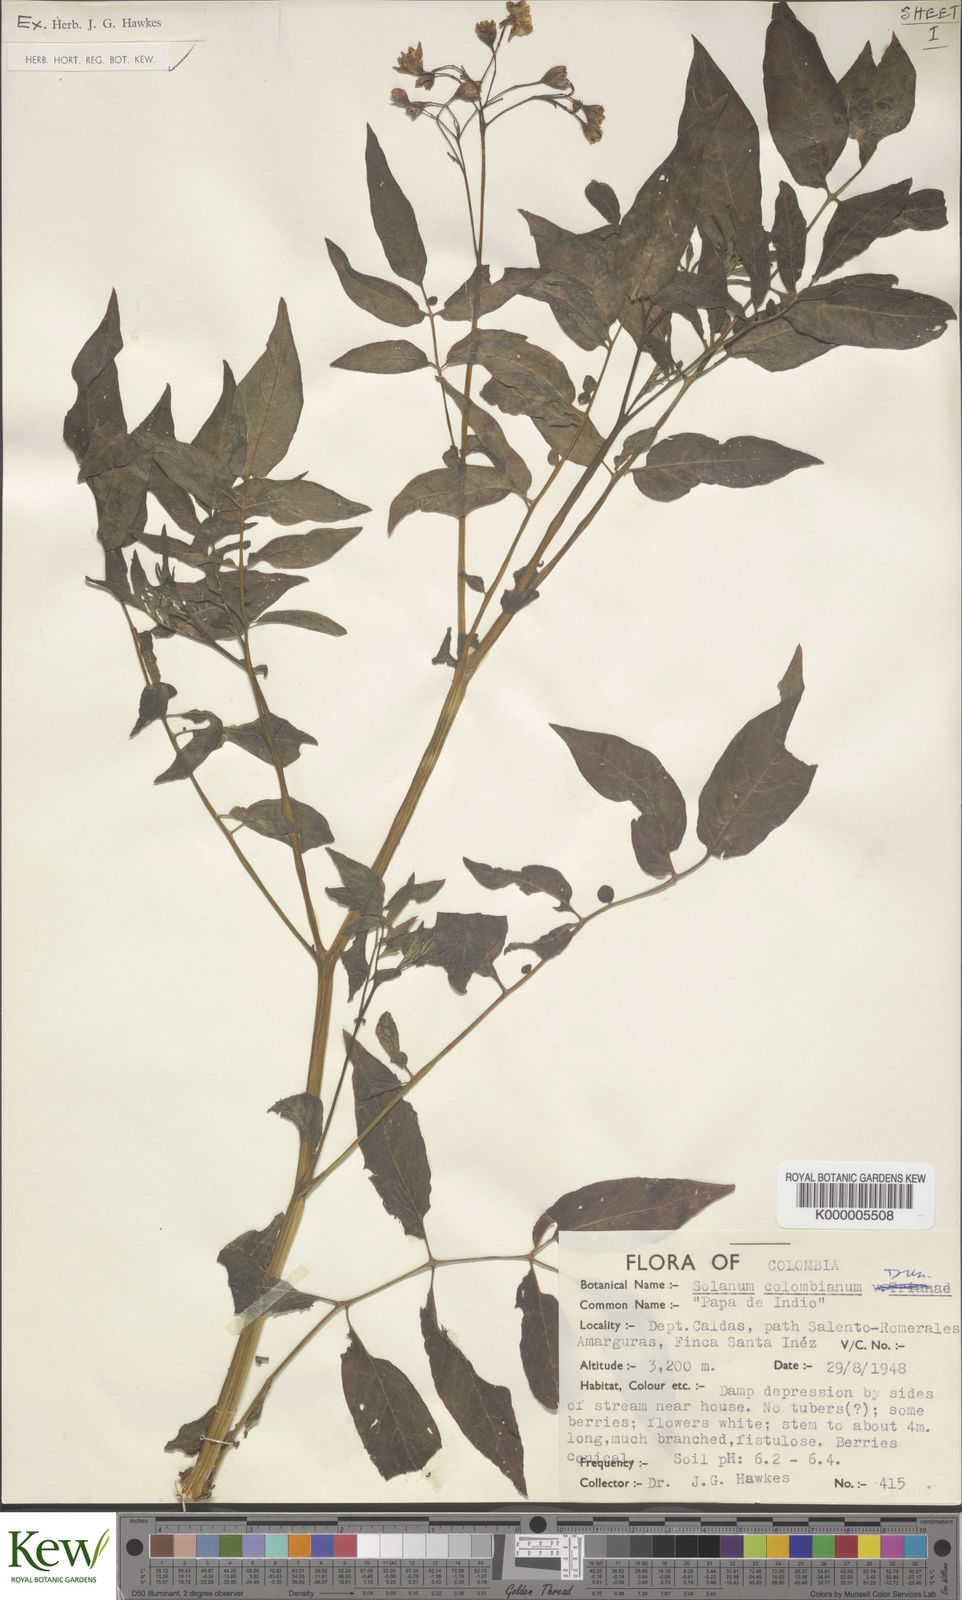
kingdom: Plantae
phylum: Tracheophyta
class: Magnoliopsida
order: Solanales
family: Solanaceae
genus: Solanum
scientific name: Solanum colombianum
